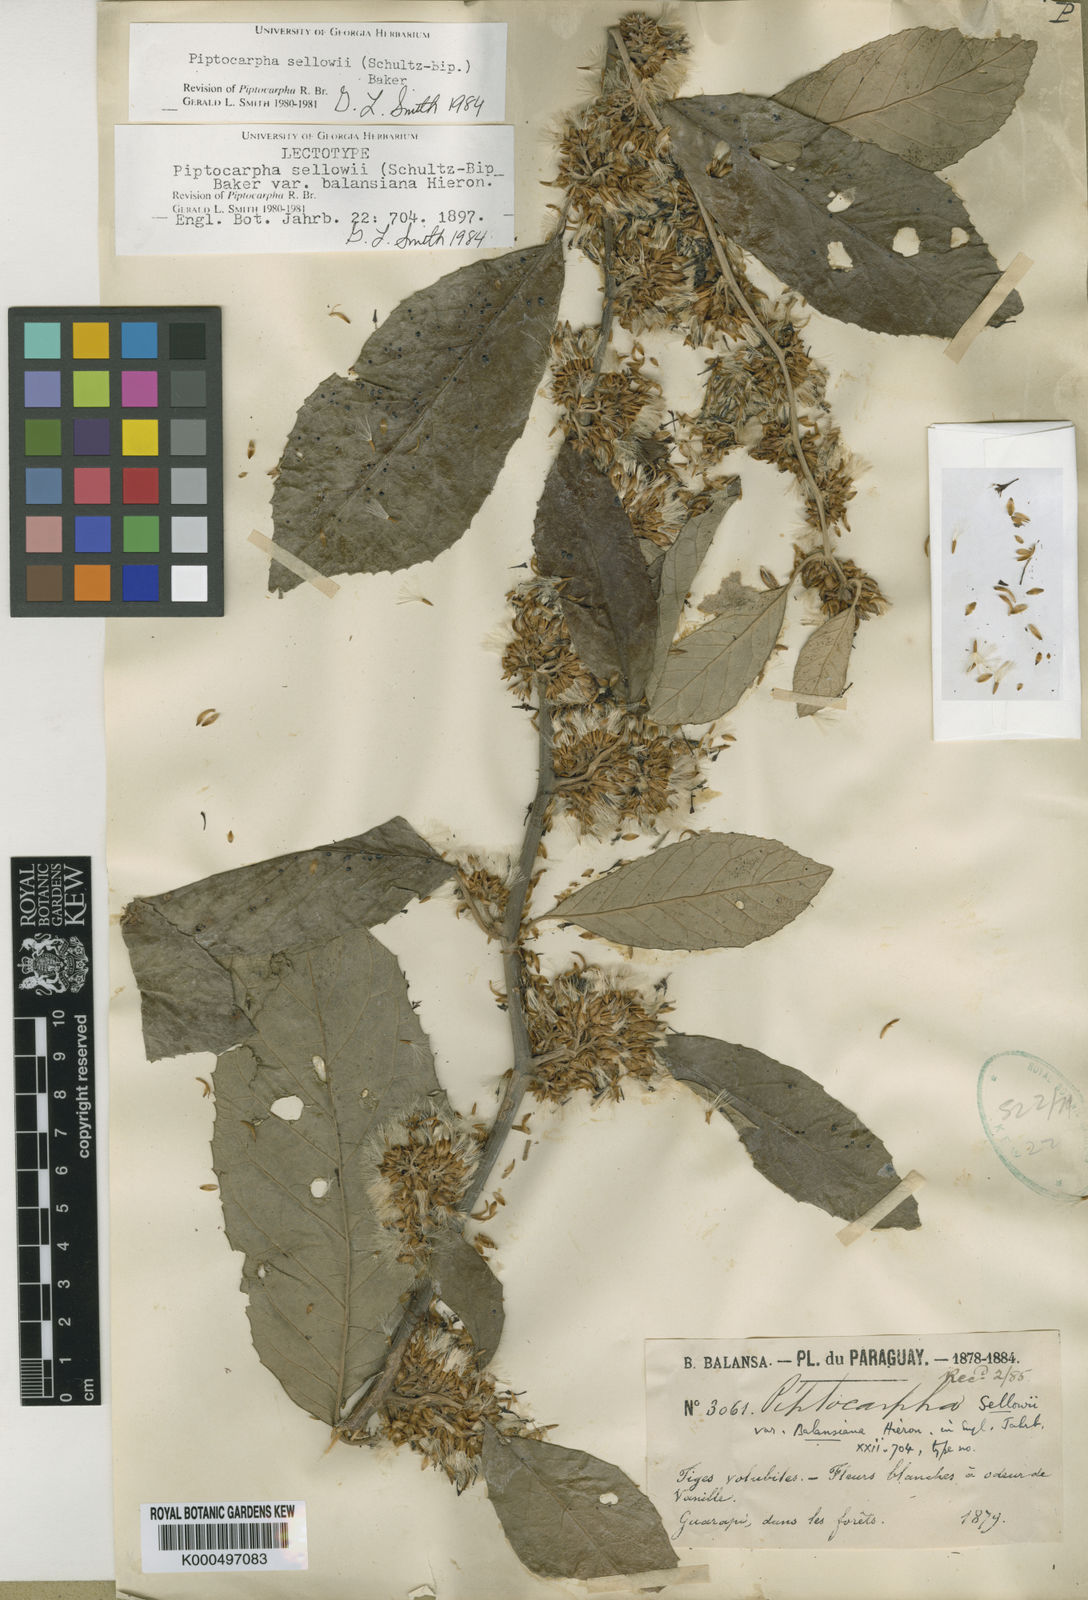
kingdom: Plantae
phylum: Tracheophyta
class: Magnoliopsida
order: Asterales
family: Asteraceae
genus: Piptocarpha
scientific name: Piptocarpha
